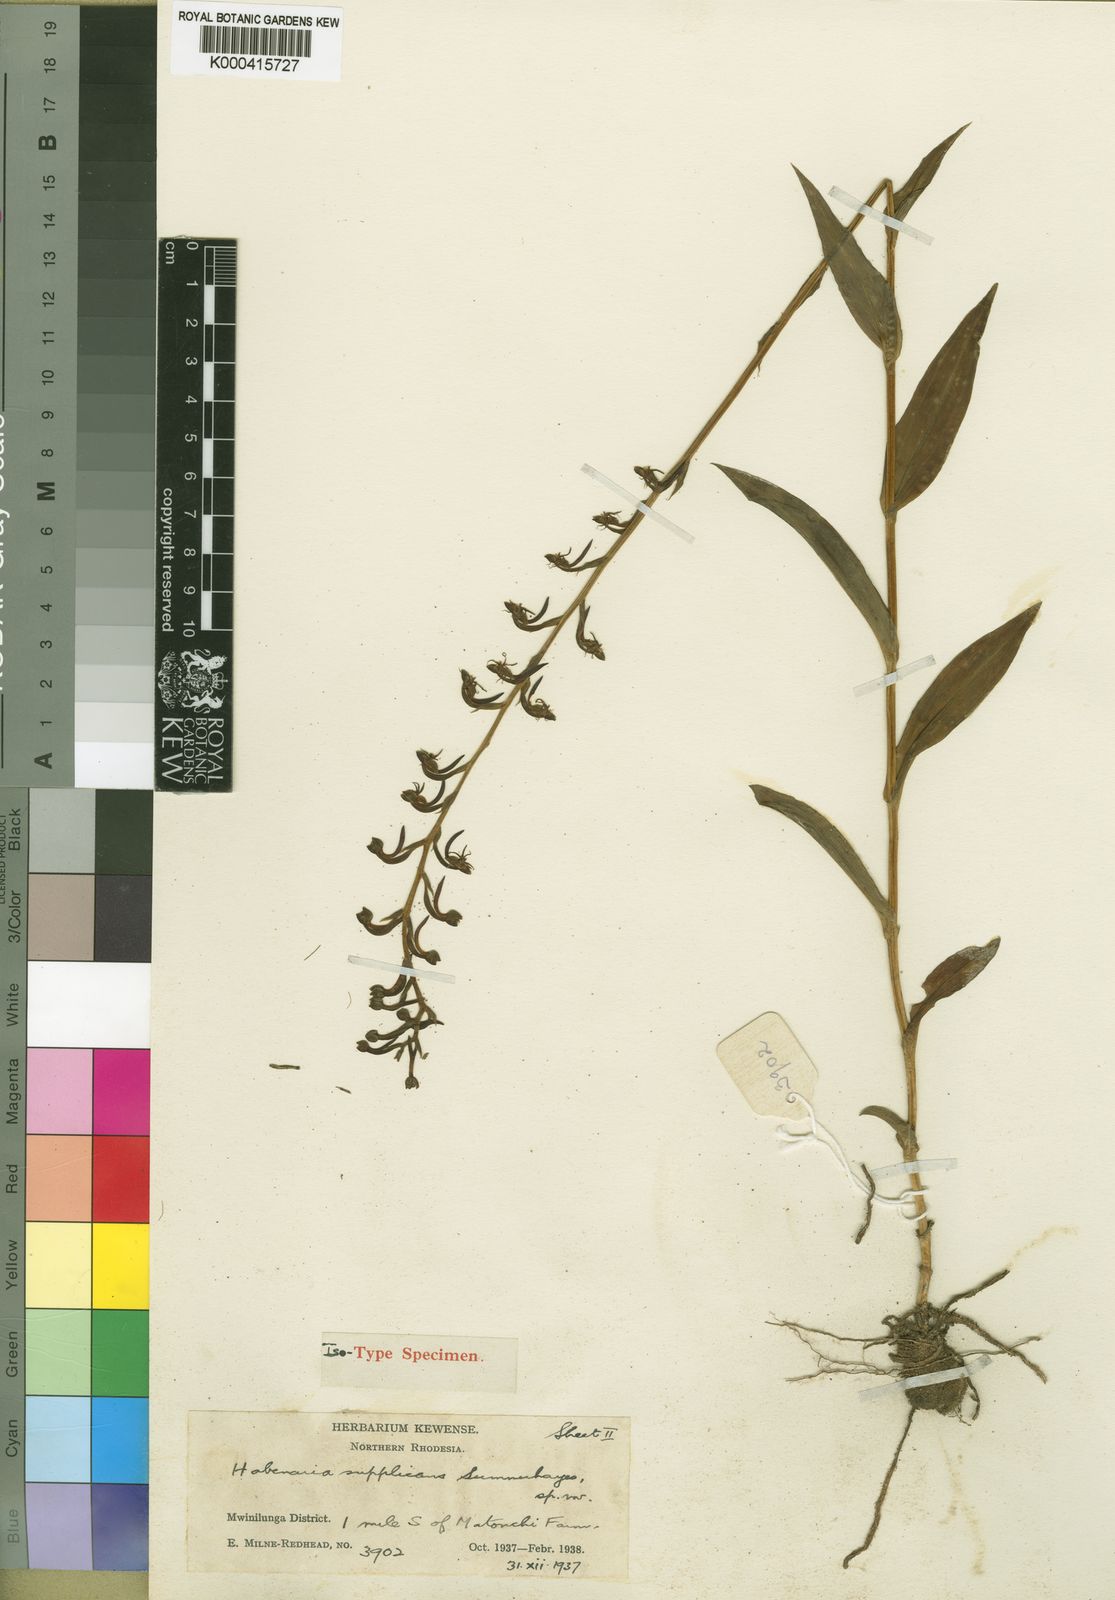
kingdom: Plantae
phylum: Tracheophyta
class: Liliopsida
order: Asparagales
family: Orchidaceae
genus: Habenaria
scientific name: Habenaria supplicans
